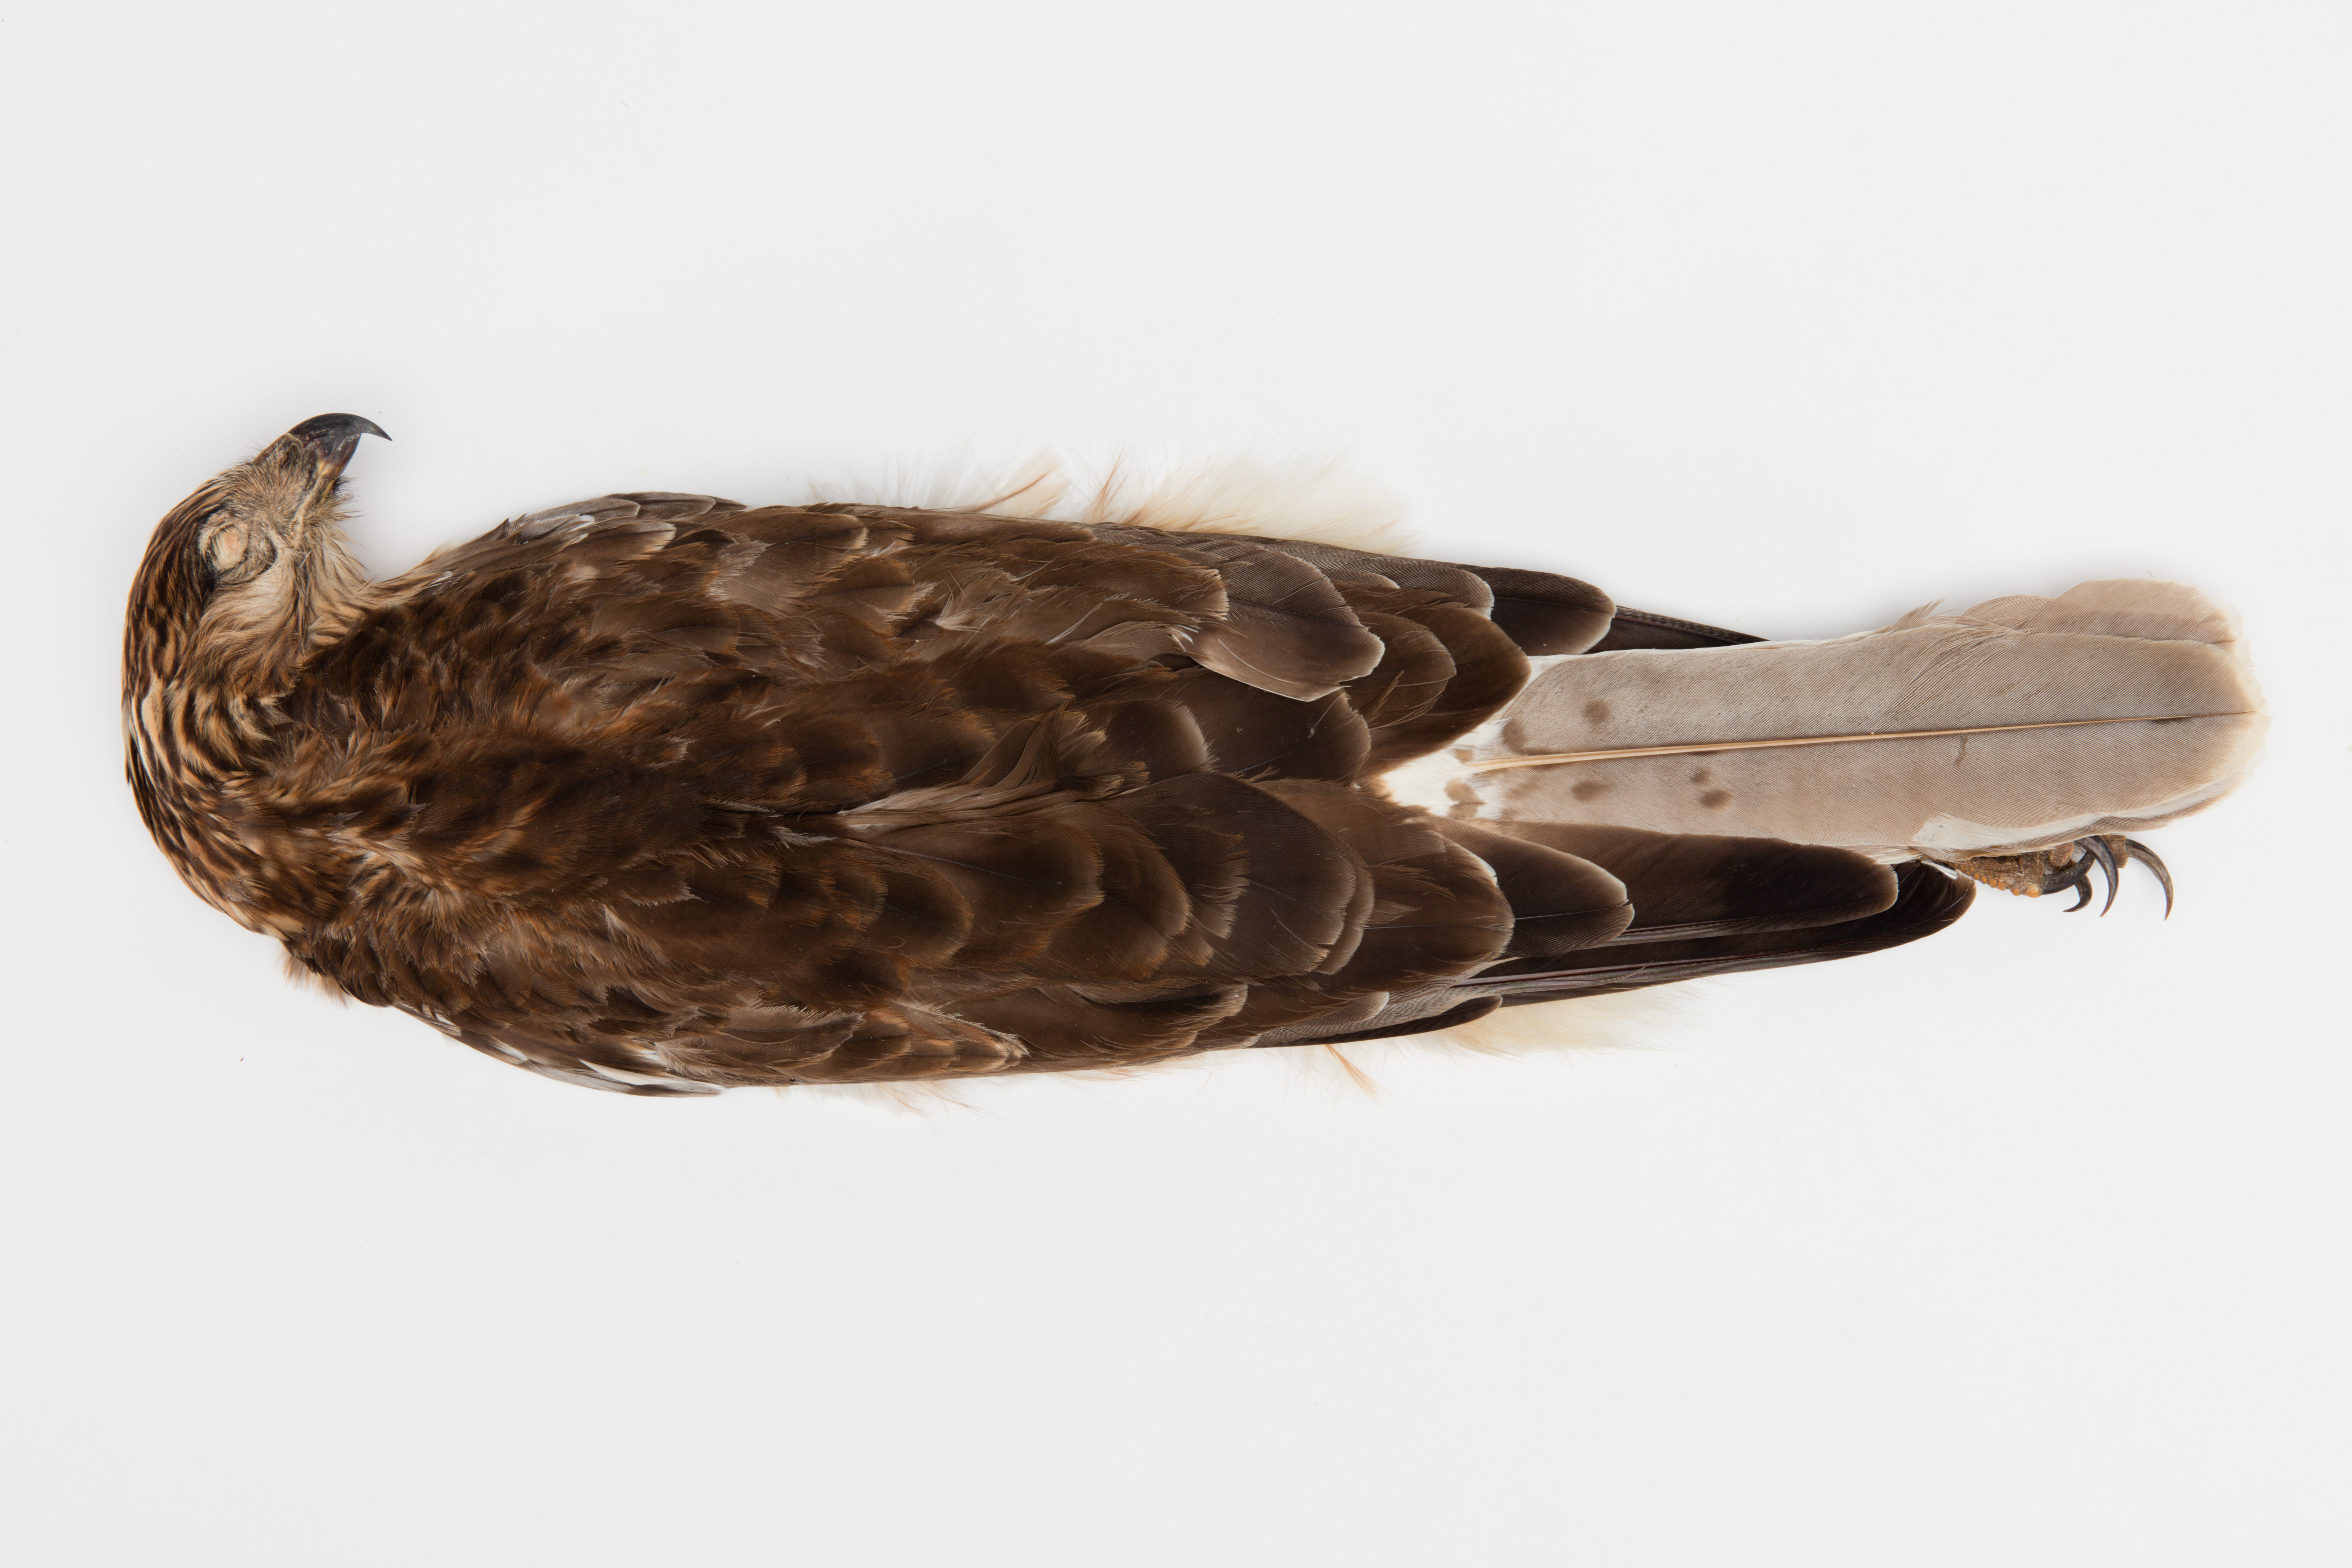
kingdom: Animalia
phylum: Chordata
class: Aves
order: Accipitriformes
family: Accipitridae
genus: Circus
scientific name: Circus approximans
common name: Swamp harrier
